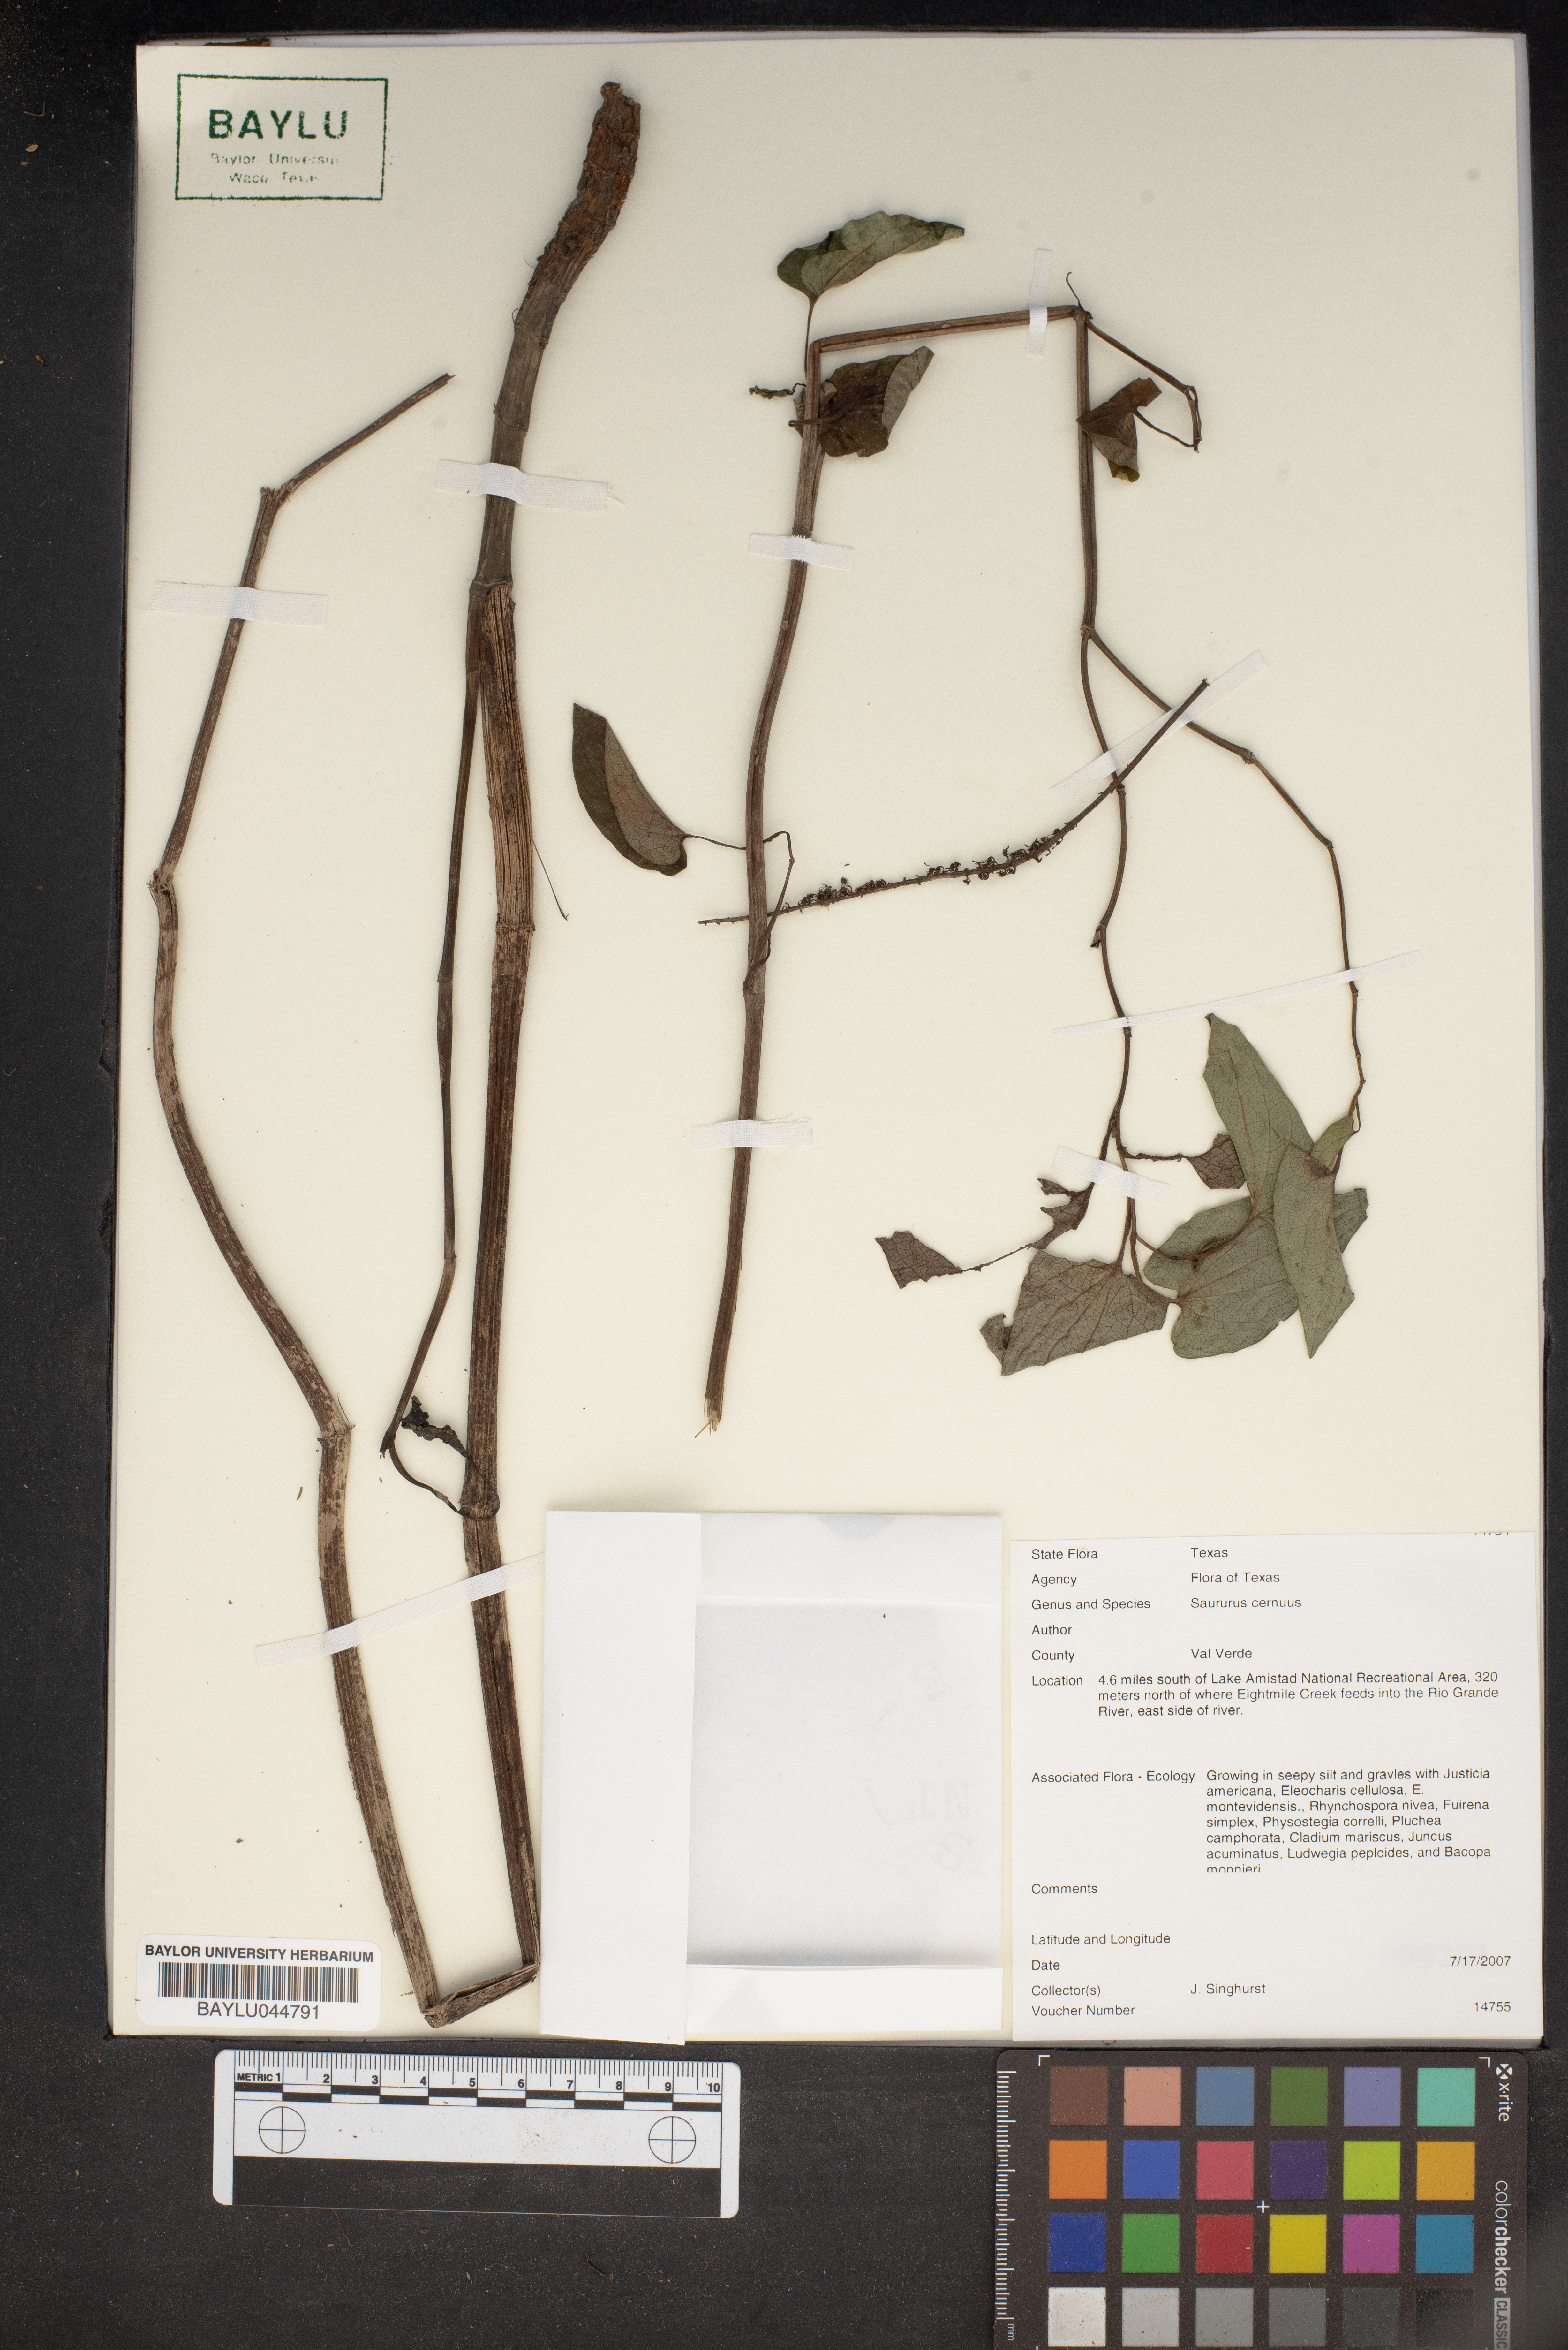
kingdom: Plantae
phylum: Tracheophyta
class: Magnoliopsida
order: Piperales
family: Saururaceae
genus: Saururus
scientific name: Saururus cernuus
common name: Lizard's-tail
